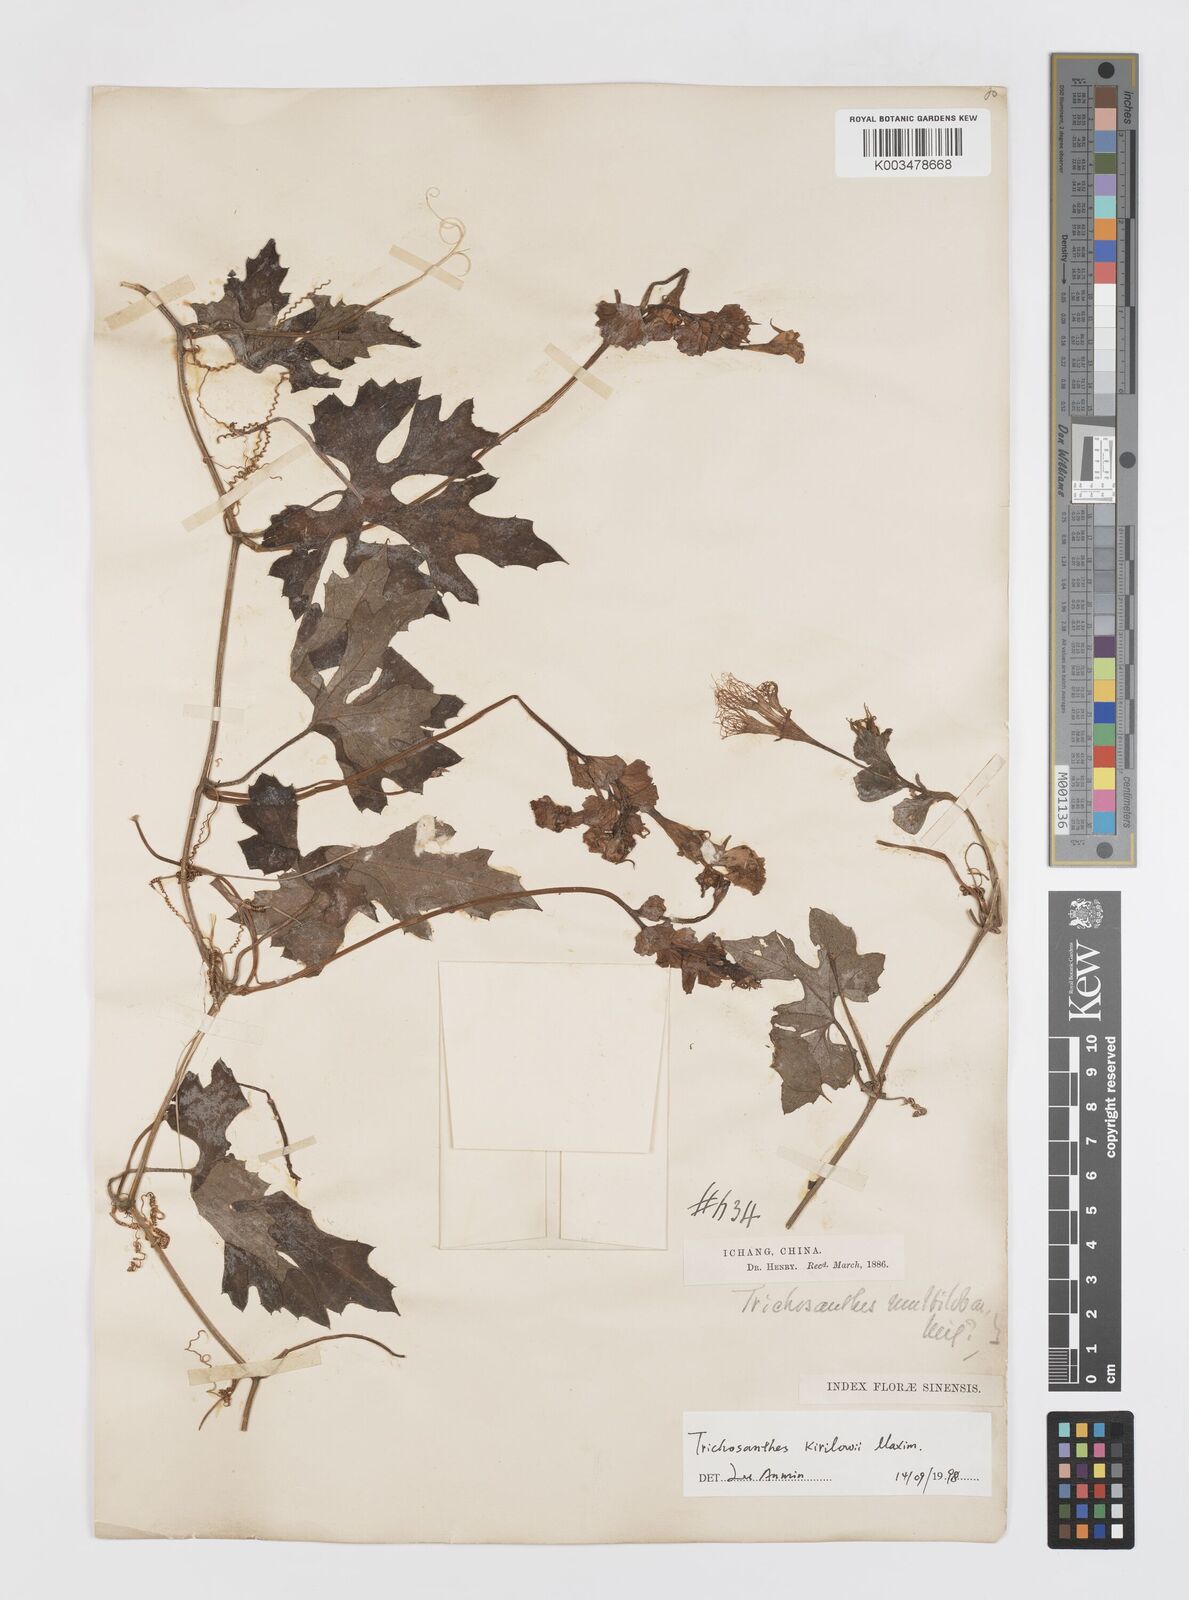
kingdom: Plantae
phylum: Tracheophyta
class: Magnoliopsida
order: Cucurbitales
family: Cucurbitaceae
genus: Trichosanthes
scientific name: Trichosanthes kirilowii
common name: Chinese-cucumber
